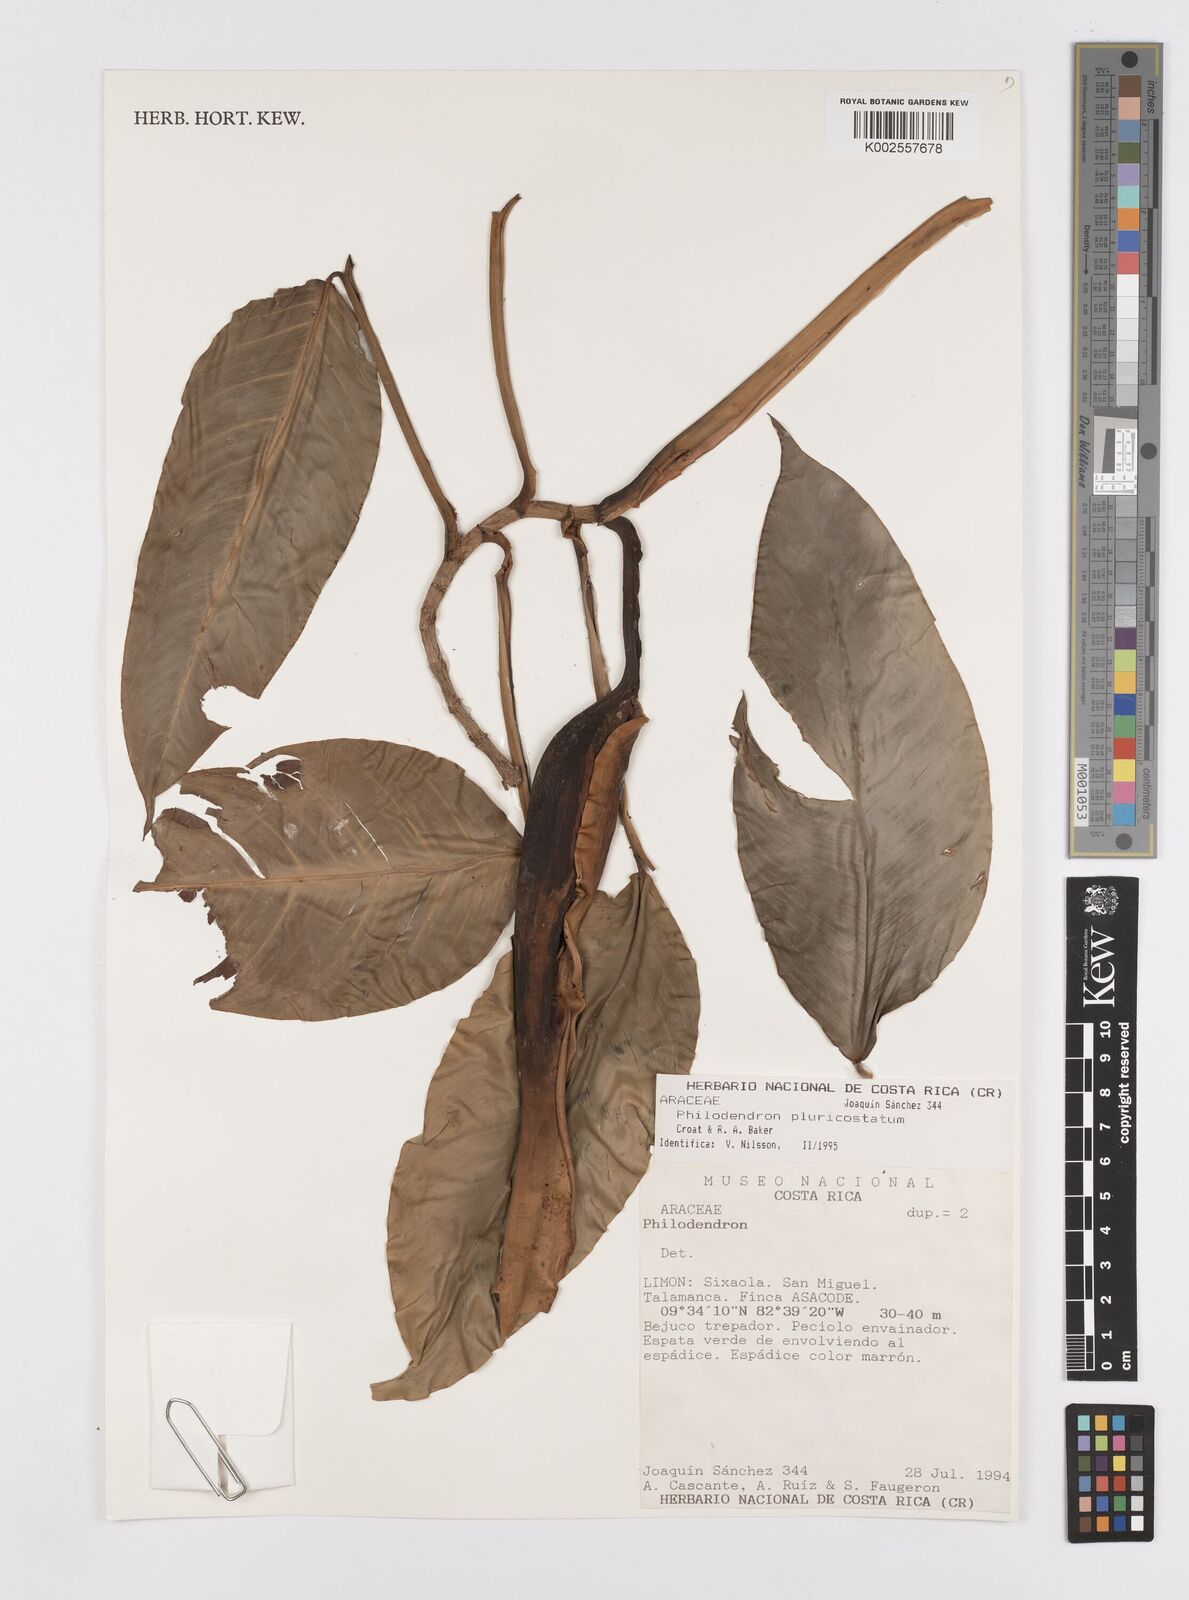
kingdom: Plantae
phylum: Tracheophyta
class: Liliopsida
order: Alismatales
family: Araceae
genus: Philodendron
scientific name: Philodendron
